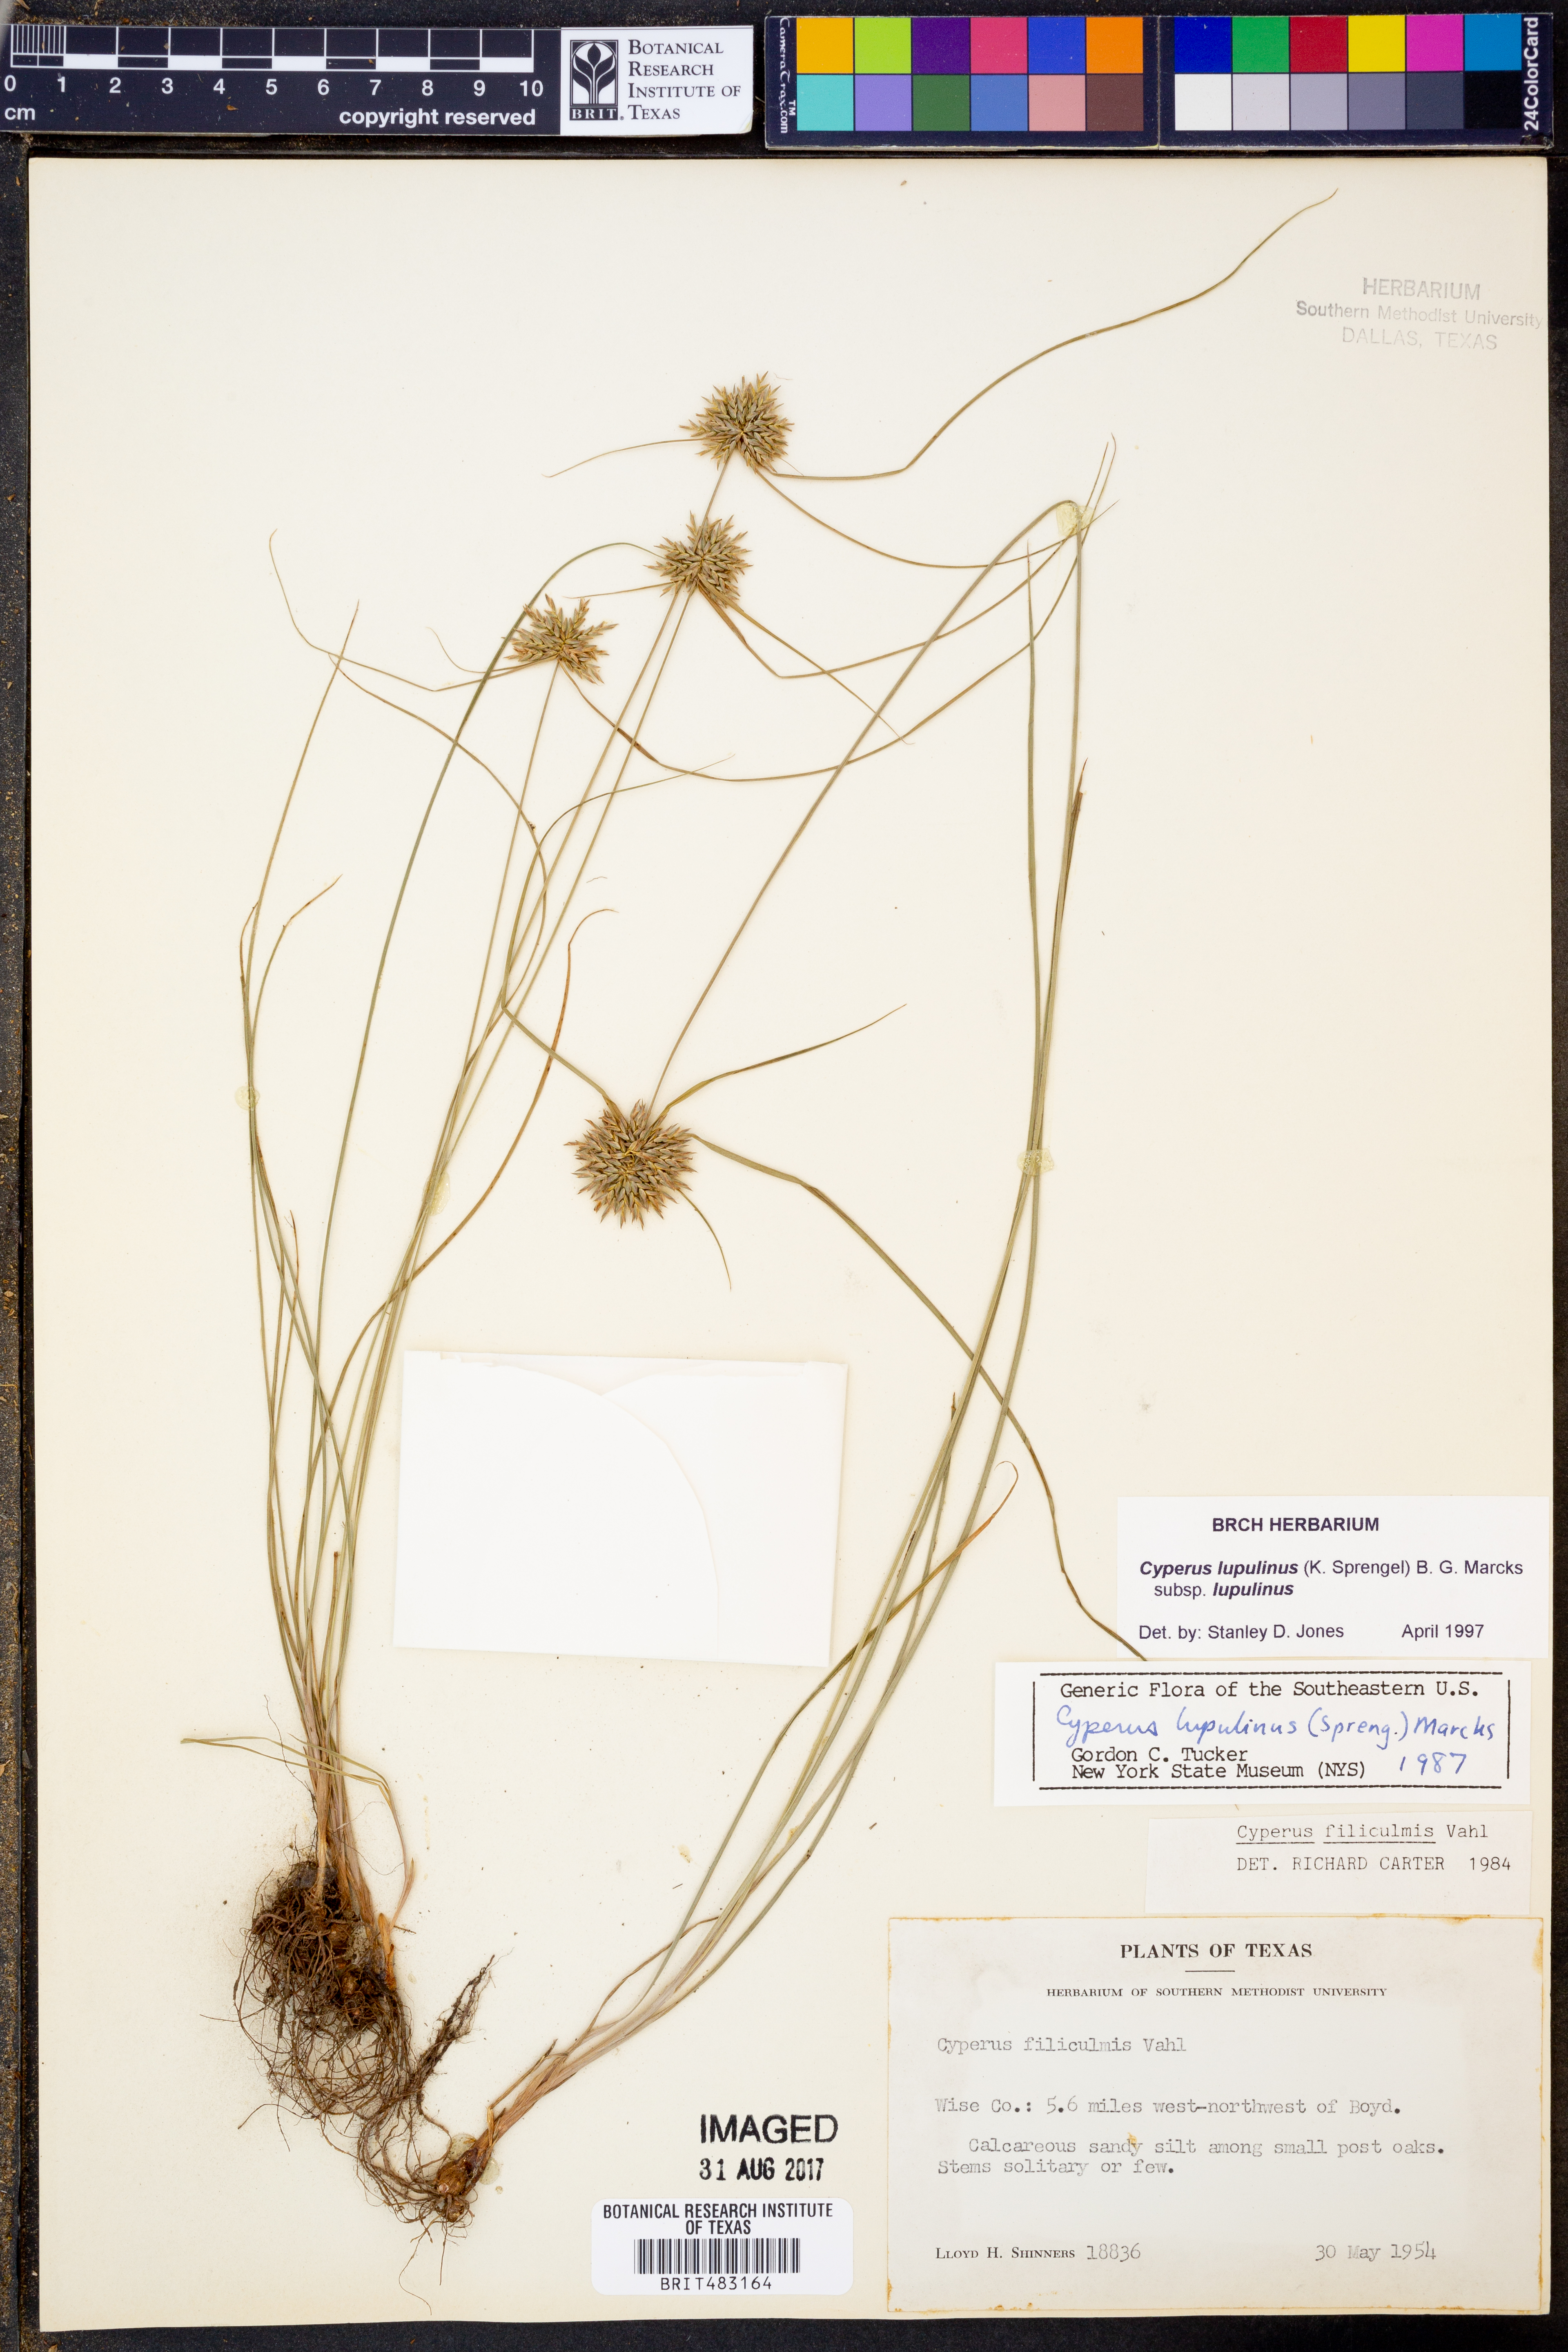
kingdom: Plantae
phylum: Tracheophyta
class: Liliopsida
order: Poales
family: Cyperaceae
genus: Cyperus
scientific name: Cyperus lupulinus
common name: Great plains flatsedge
